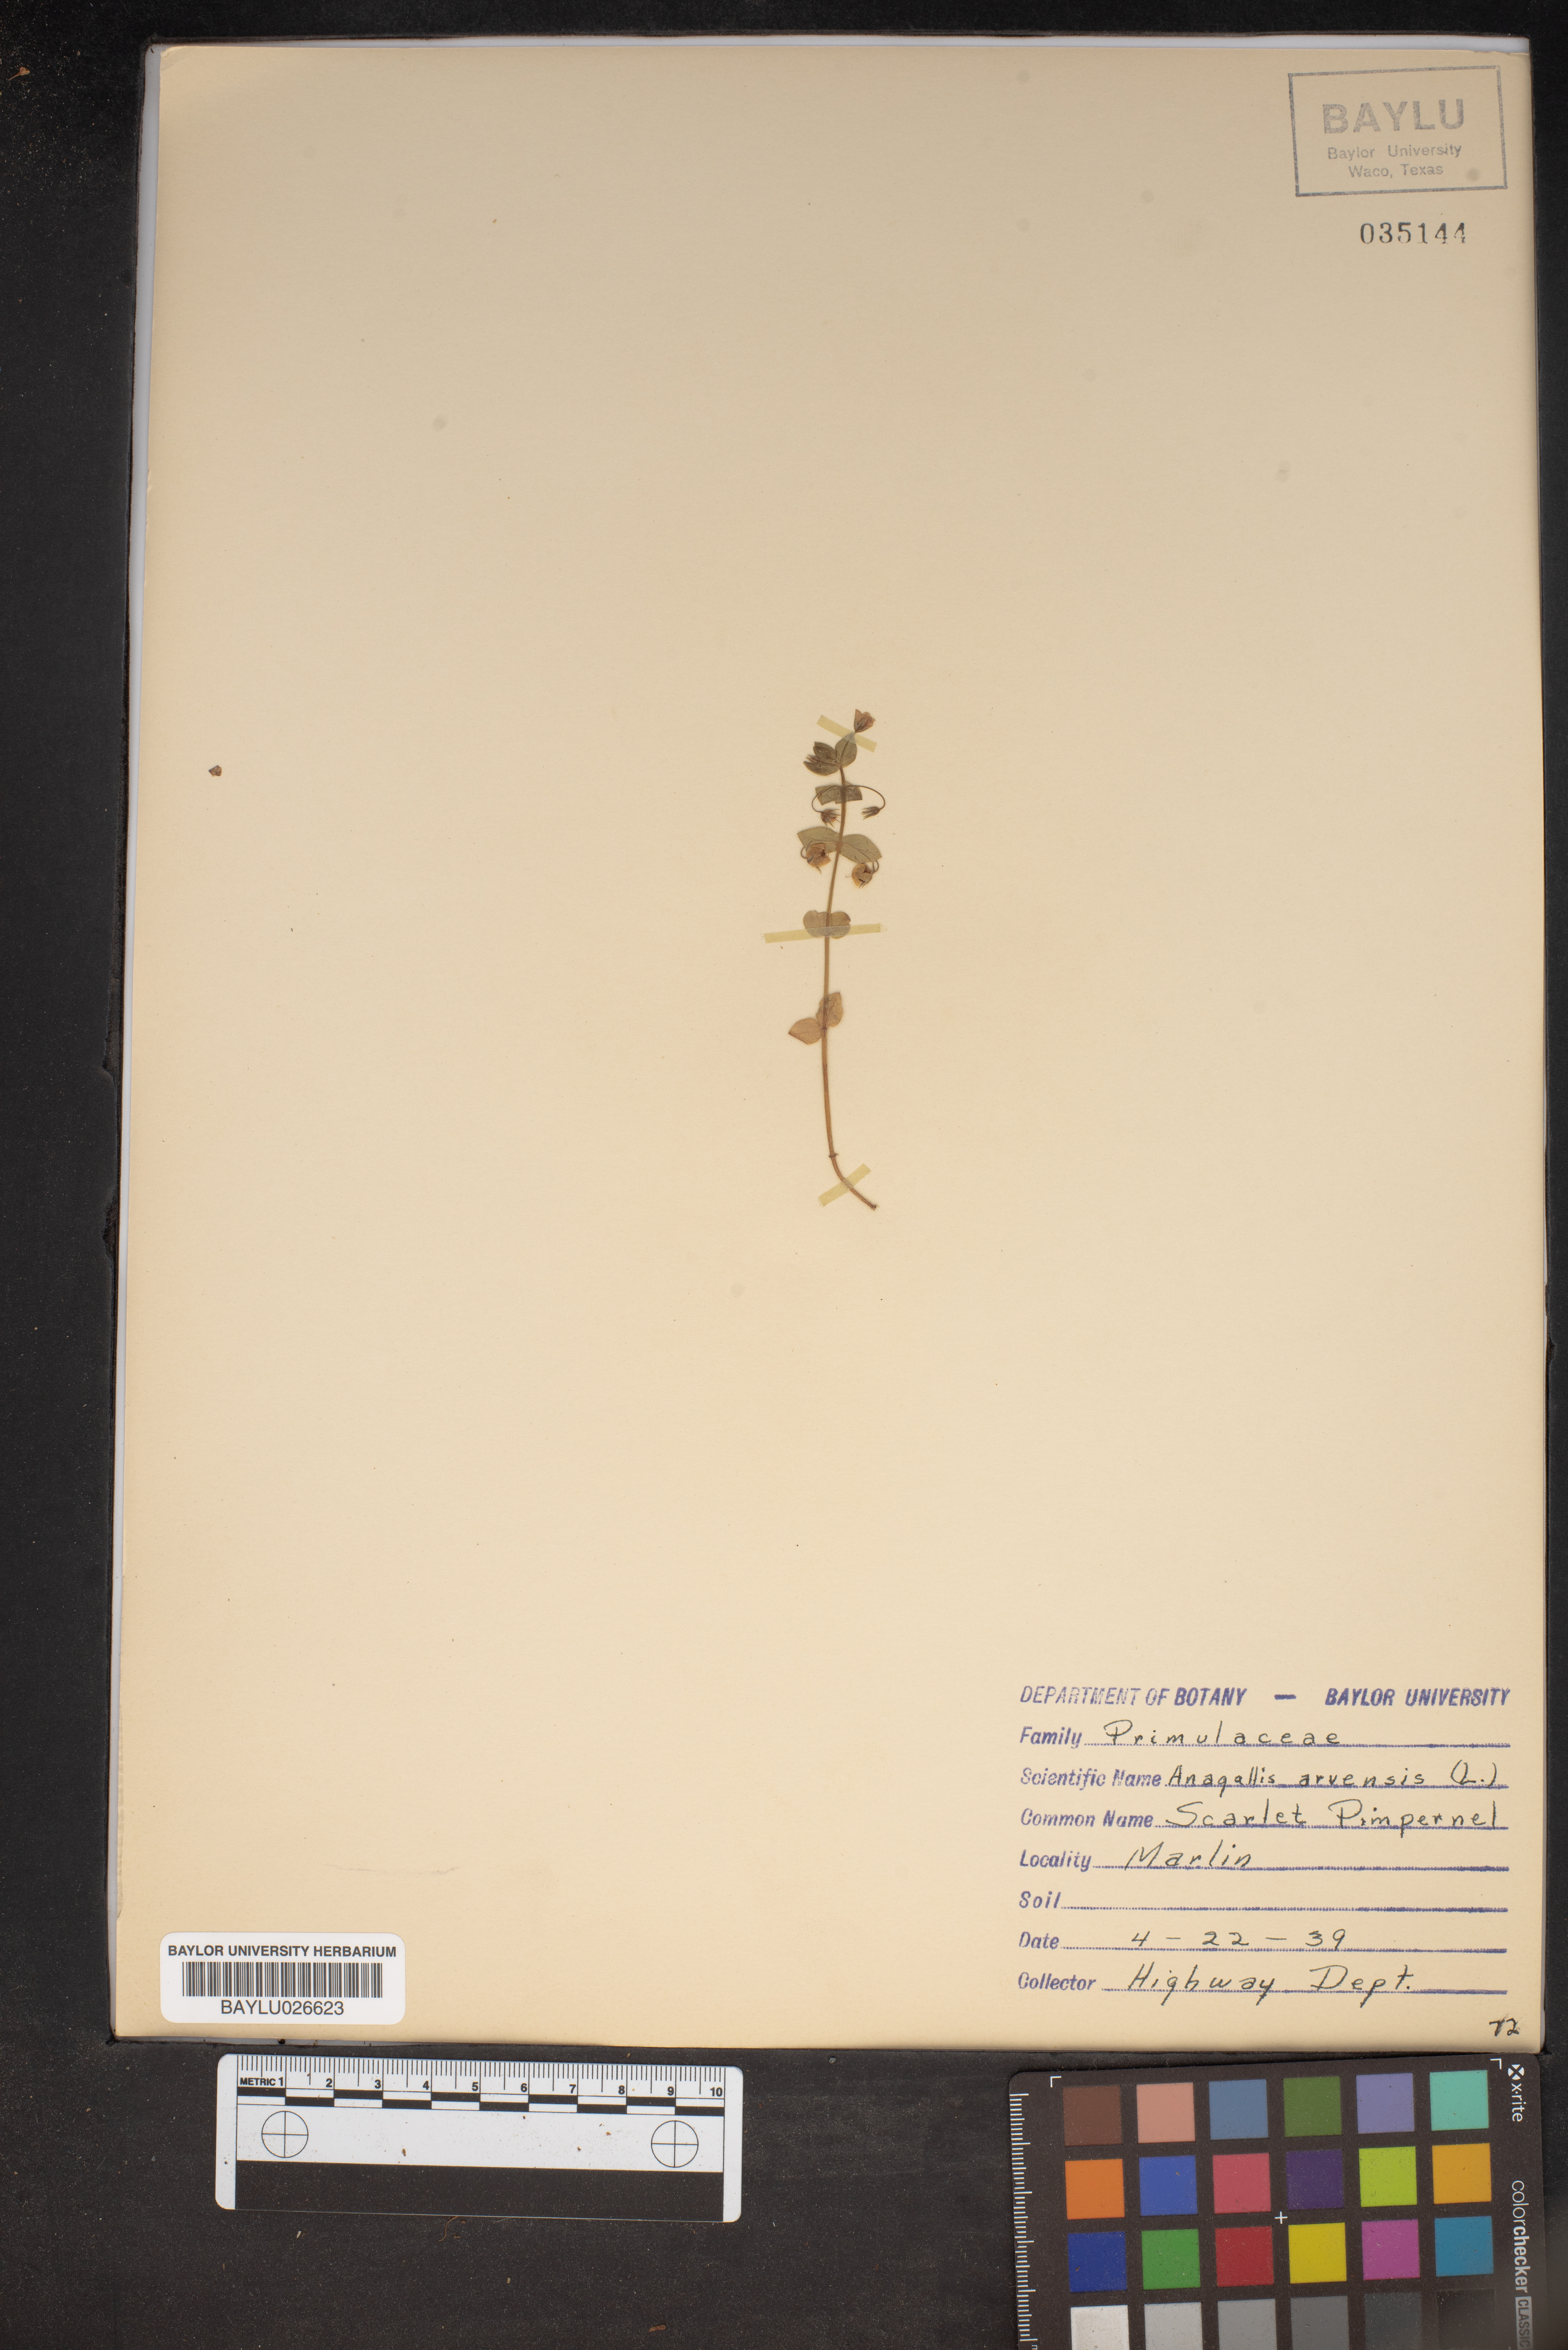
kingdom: Plantae
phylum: Tracheophyta
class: Magnoliopsida
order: Ericales
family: Primulaceae
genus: Lysimachia
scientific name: Lysimachia arvensis
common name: Scarlet pimpernel
